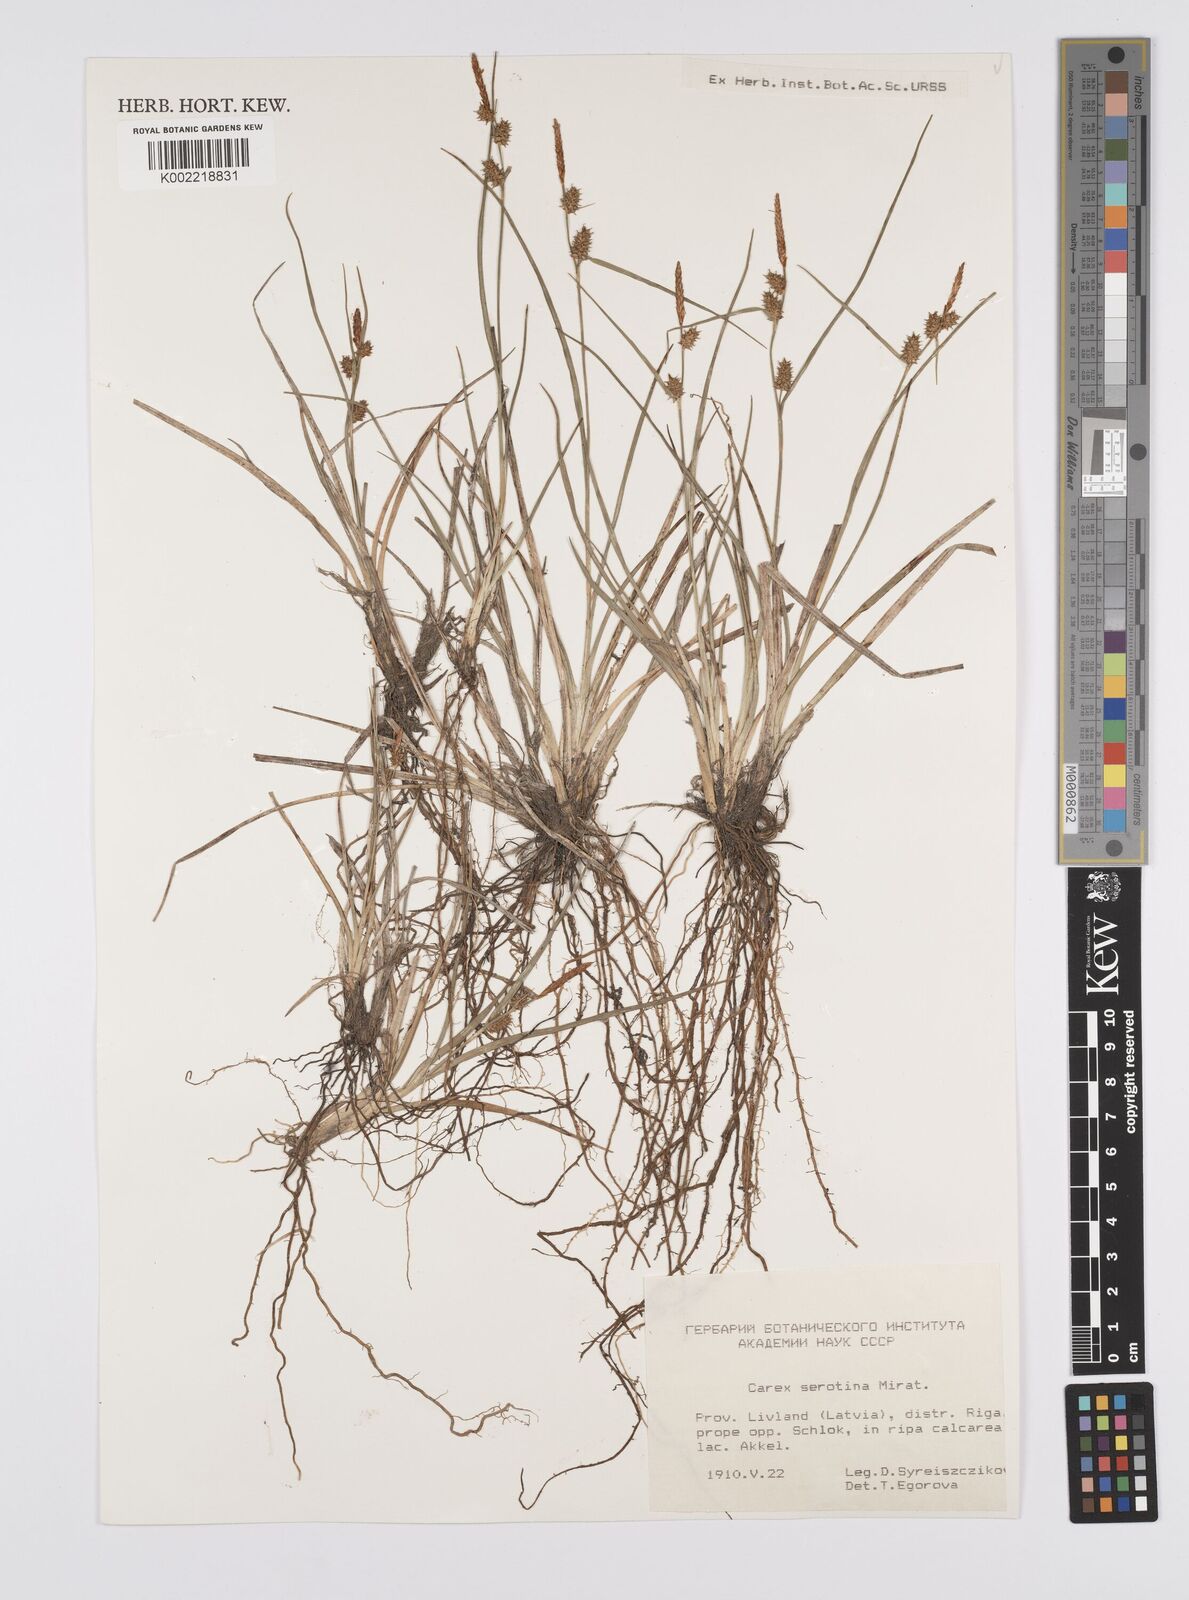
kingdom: Plantae
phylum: Tracheophyta
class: Liliopsida
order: Poales
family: Cyperaceae
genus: Carex
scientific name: Carex pilulifera
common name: Pill sedge
